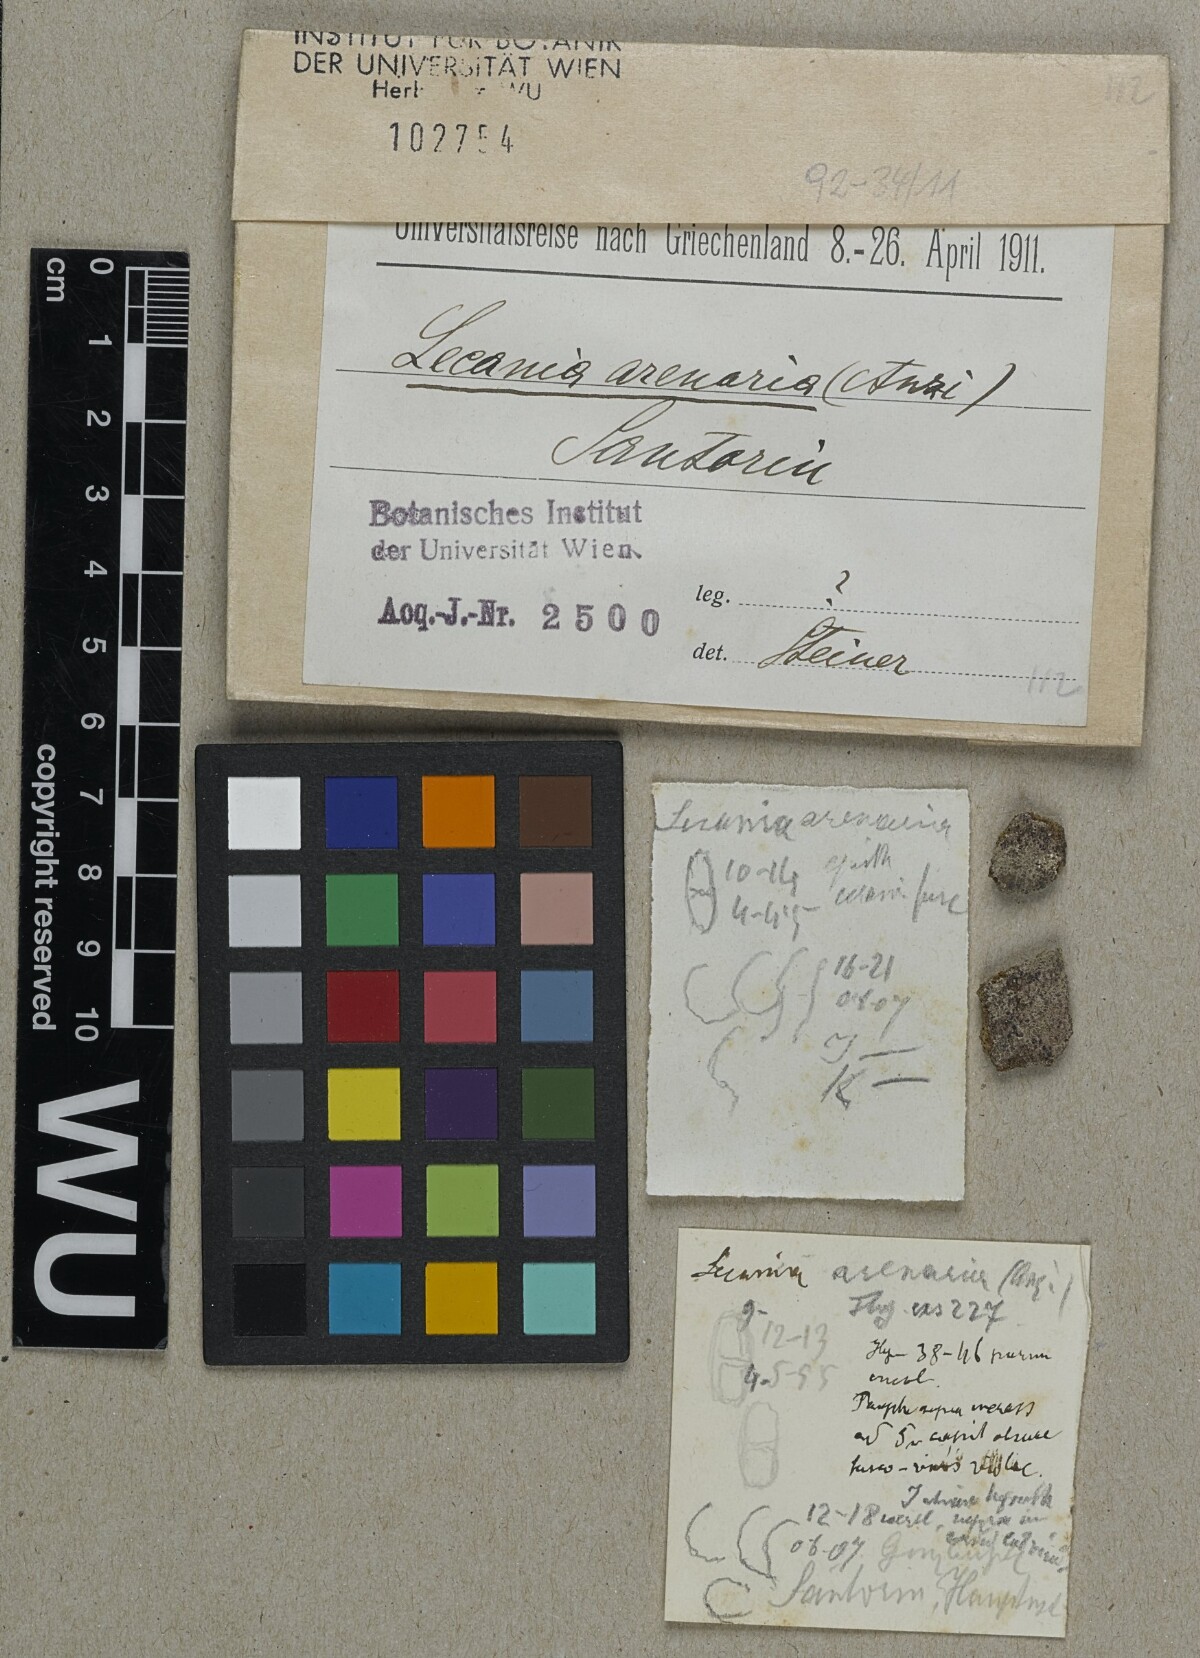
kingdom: Fungi
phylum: Ascomycota
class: Lecanoromycetes
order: Teloschistales
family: Teloschistaceae
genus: Rufoplaca
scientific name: Rufoplaca arenaria
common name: Granite firedot lichen
